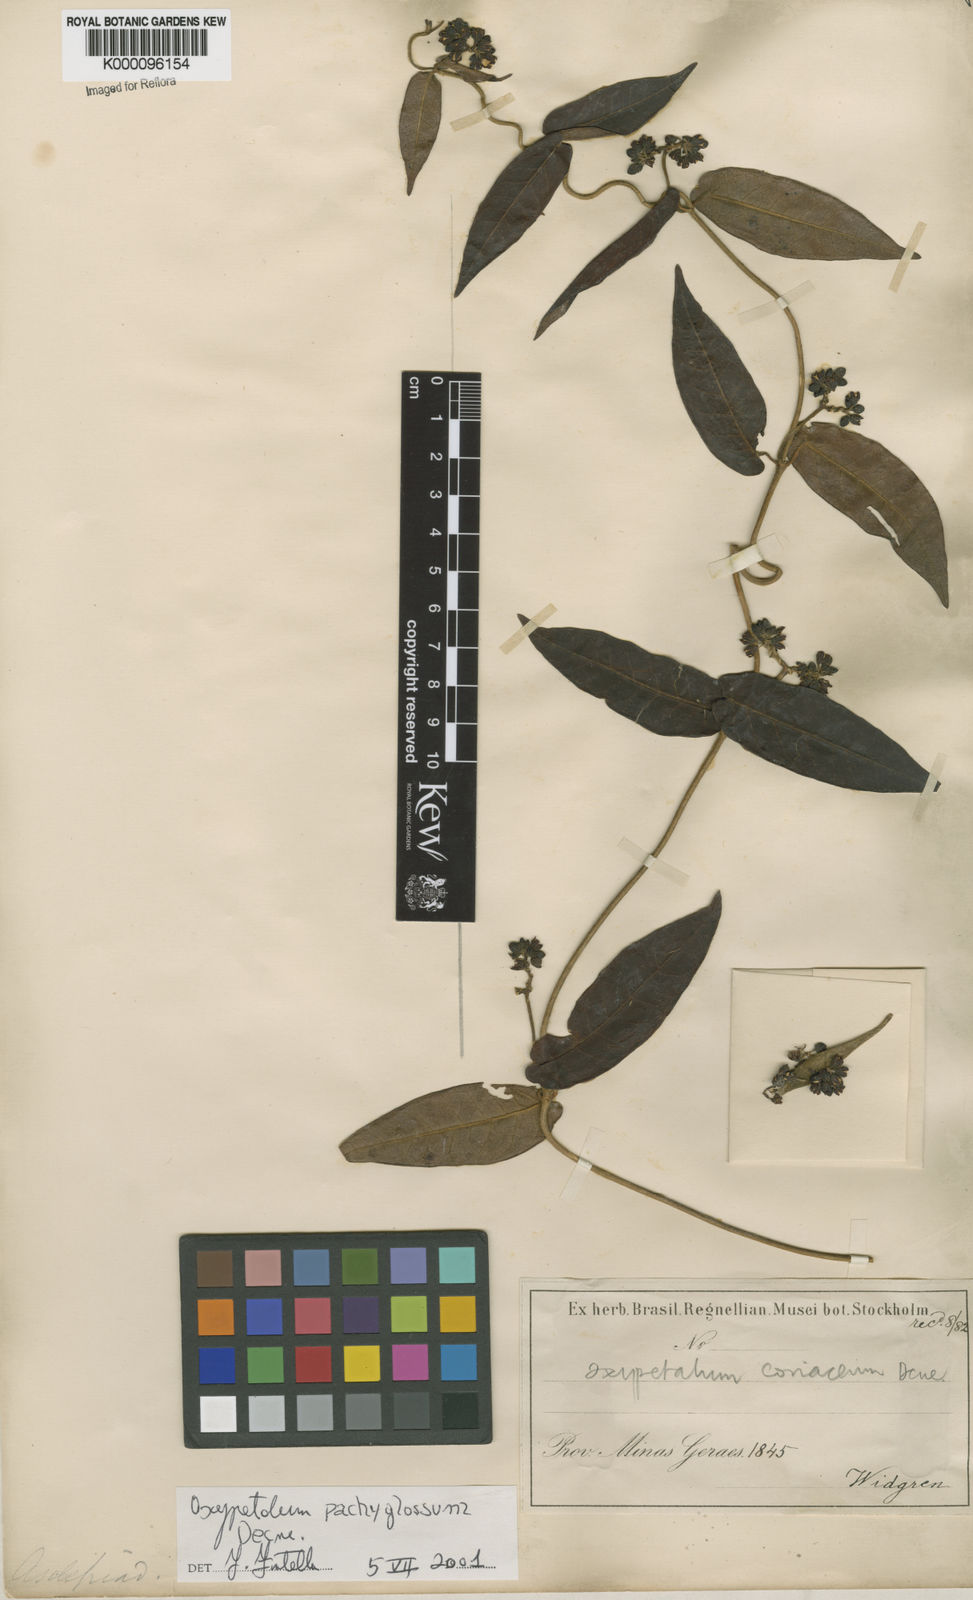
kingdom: Plantae
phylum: Tracheophyta
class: Magnoliopsida
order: Gentianales
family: Apocynaceae
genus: Oxypetalum
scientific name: Oxypetalum pachyglossum
